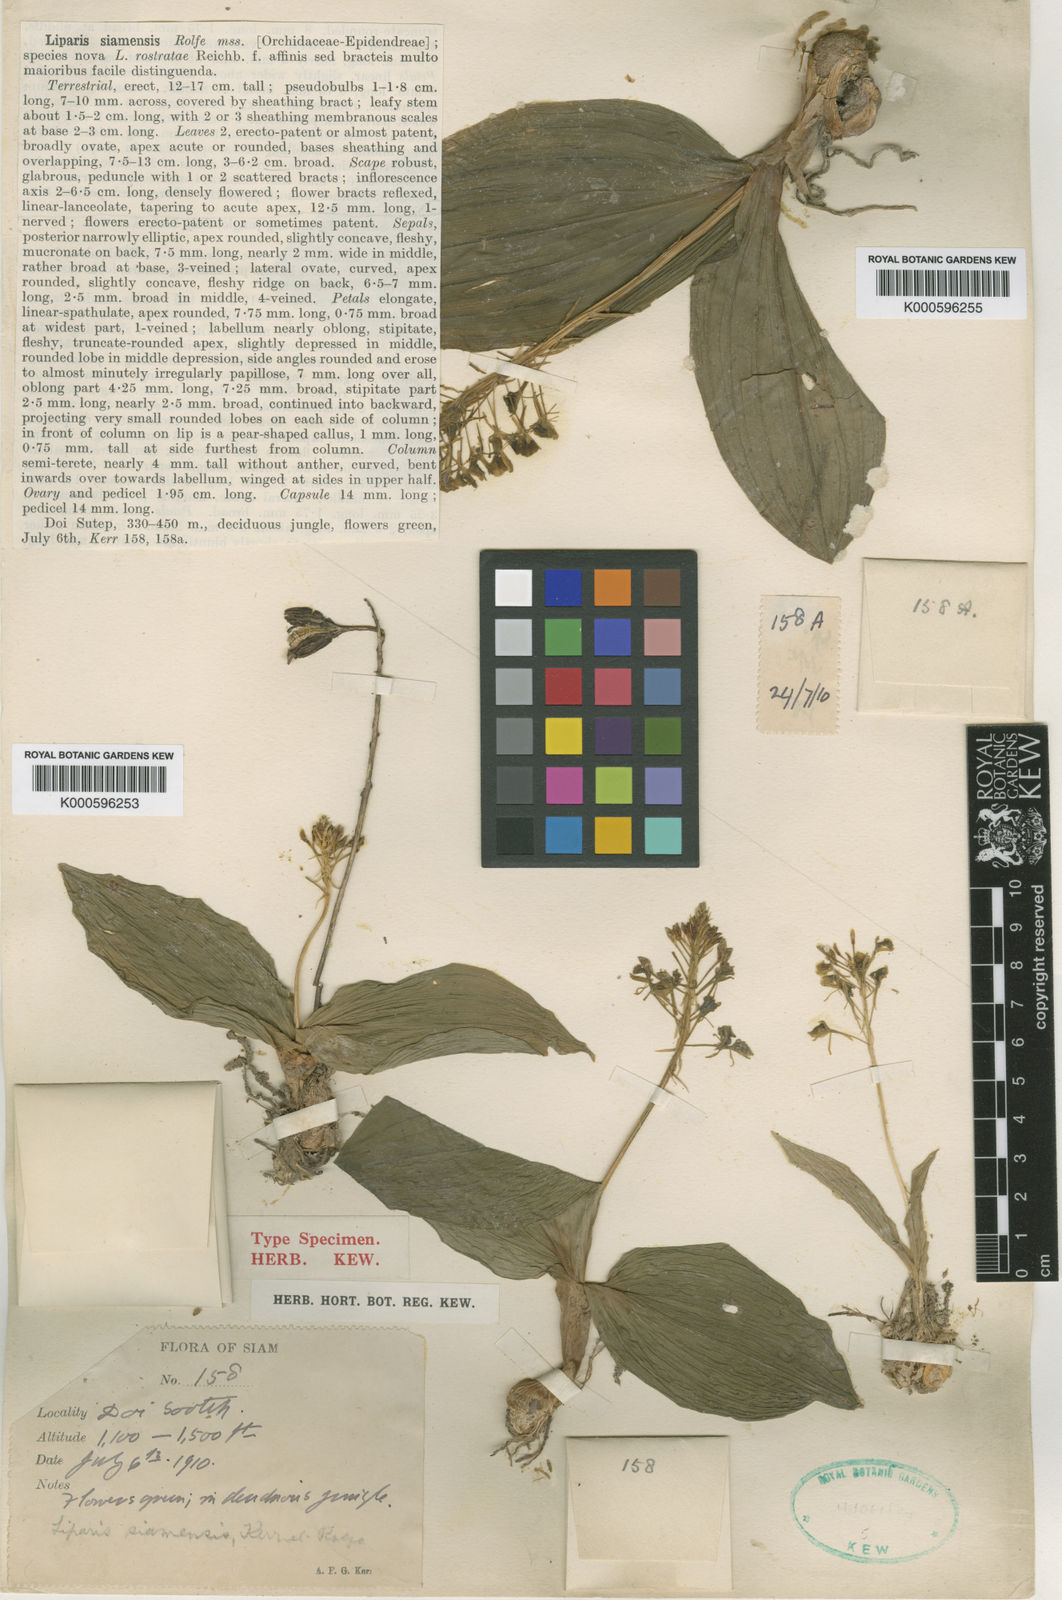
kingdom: Plantae
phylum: Tracheophyta
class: Liliopsida
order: Asparagales
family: Orchidaceae
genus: Liparis
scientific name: Liparis siamensis
